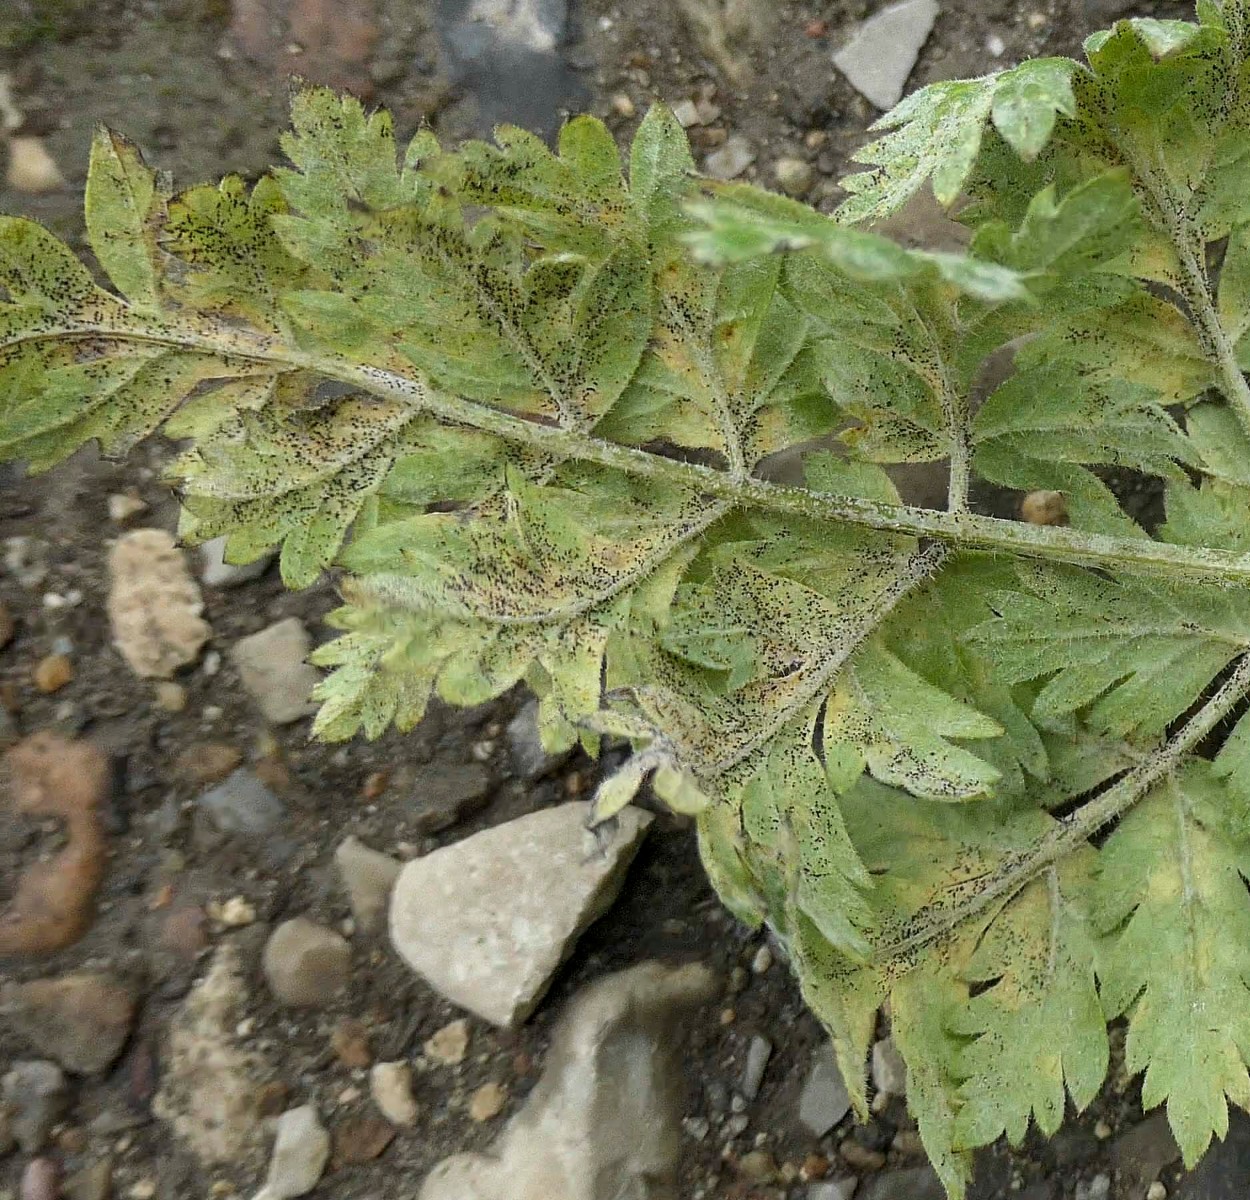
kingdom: Fungi
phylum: Ascomycota
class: Leotiomycetes
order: Helotiales
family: Erysiphaceae
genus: Erysiphe
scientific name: Erysiphe heraclei
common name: skærmplante-meldug
